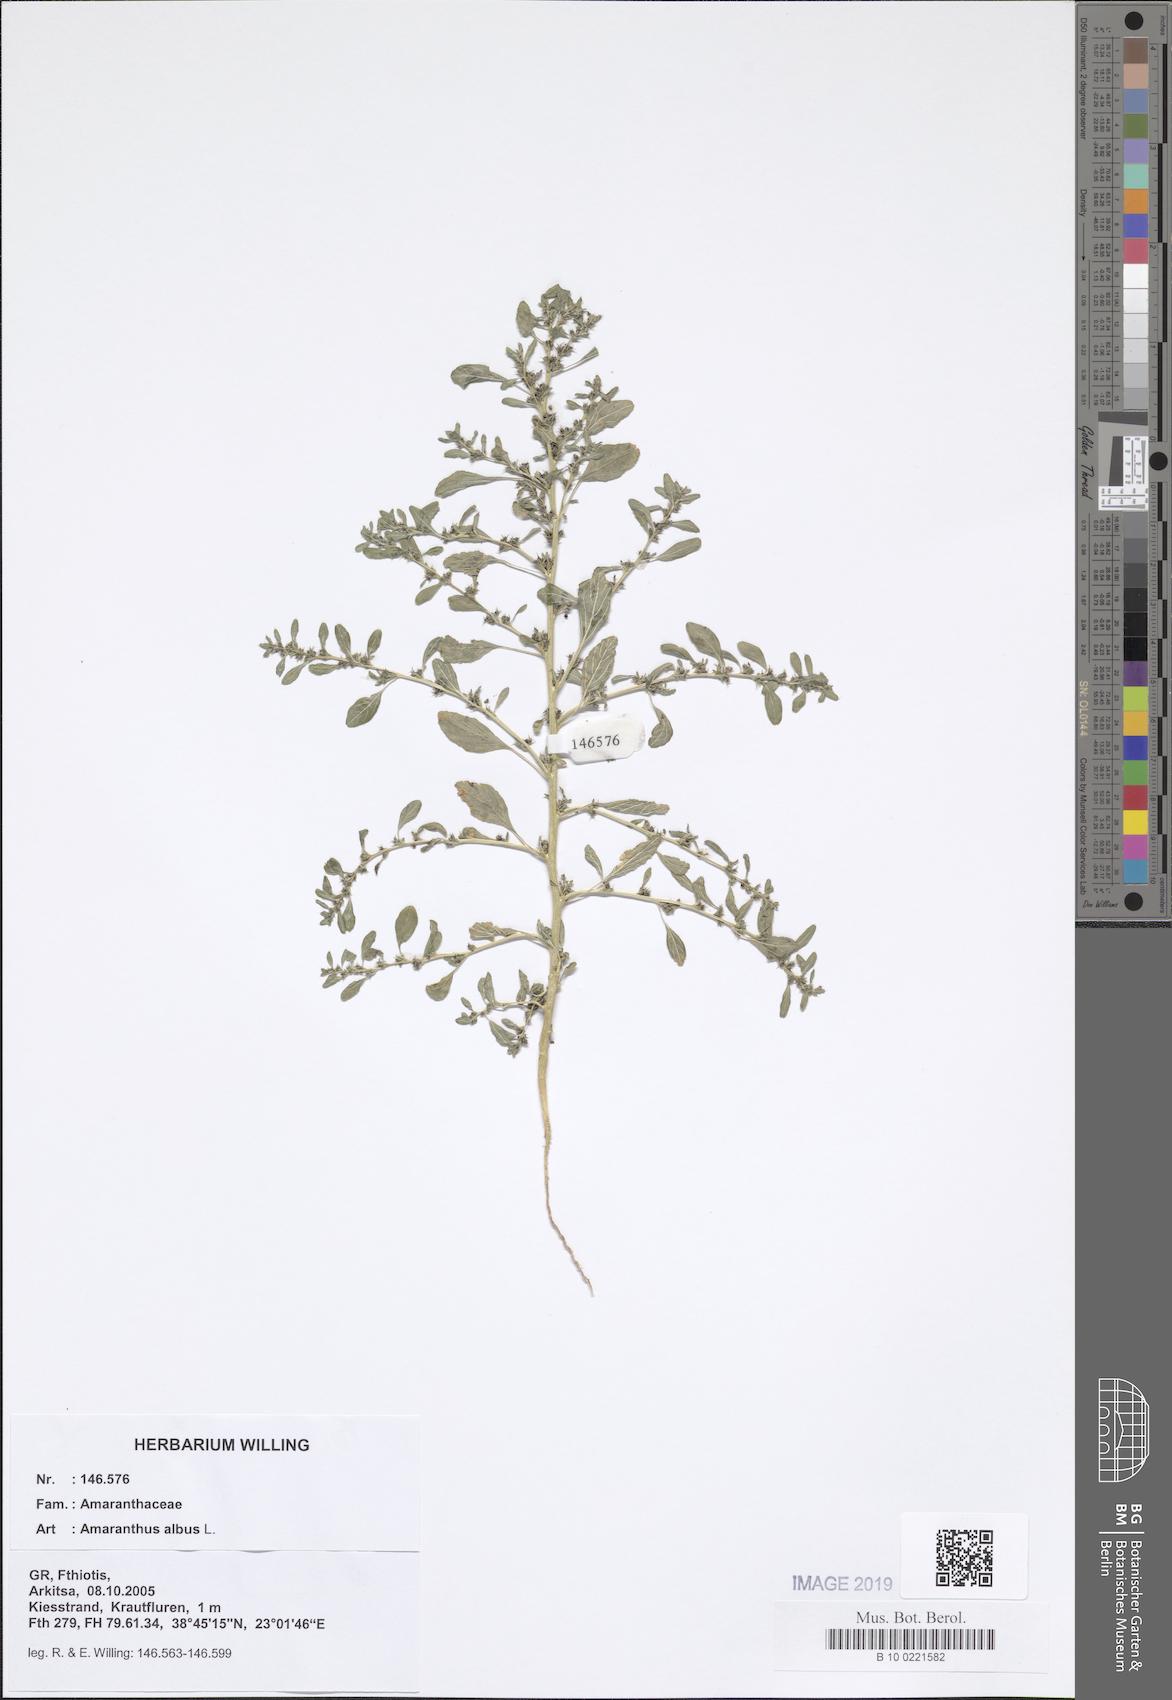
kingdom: Plantae
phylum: Tracheophyta
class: Magnoliopsida
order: Caryophyllales
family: Amaranthaceae
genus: Amaranthus
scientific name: Amaranthus albus
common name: White pigweed
